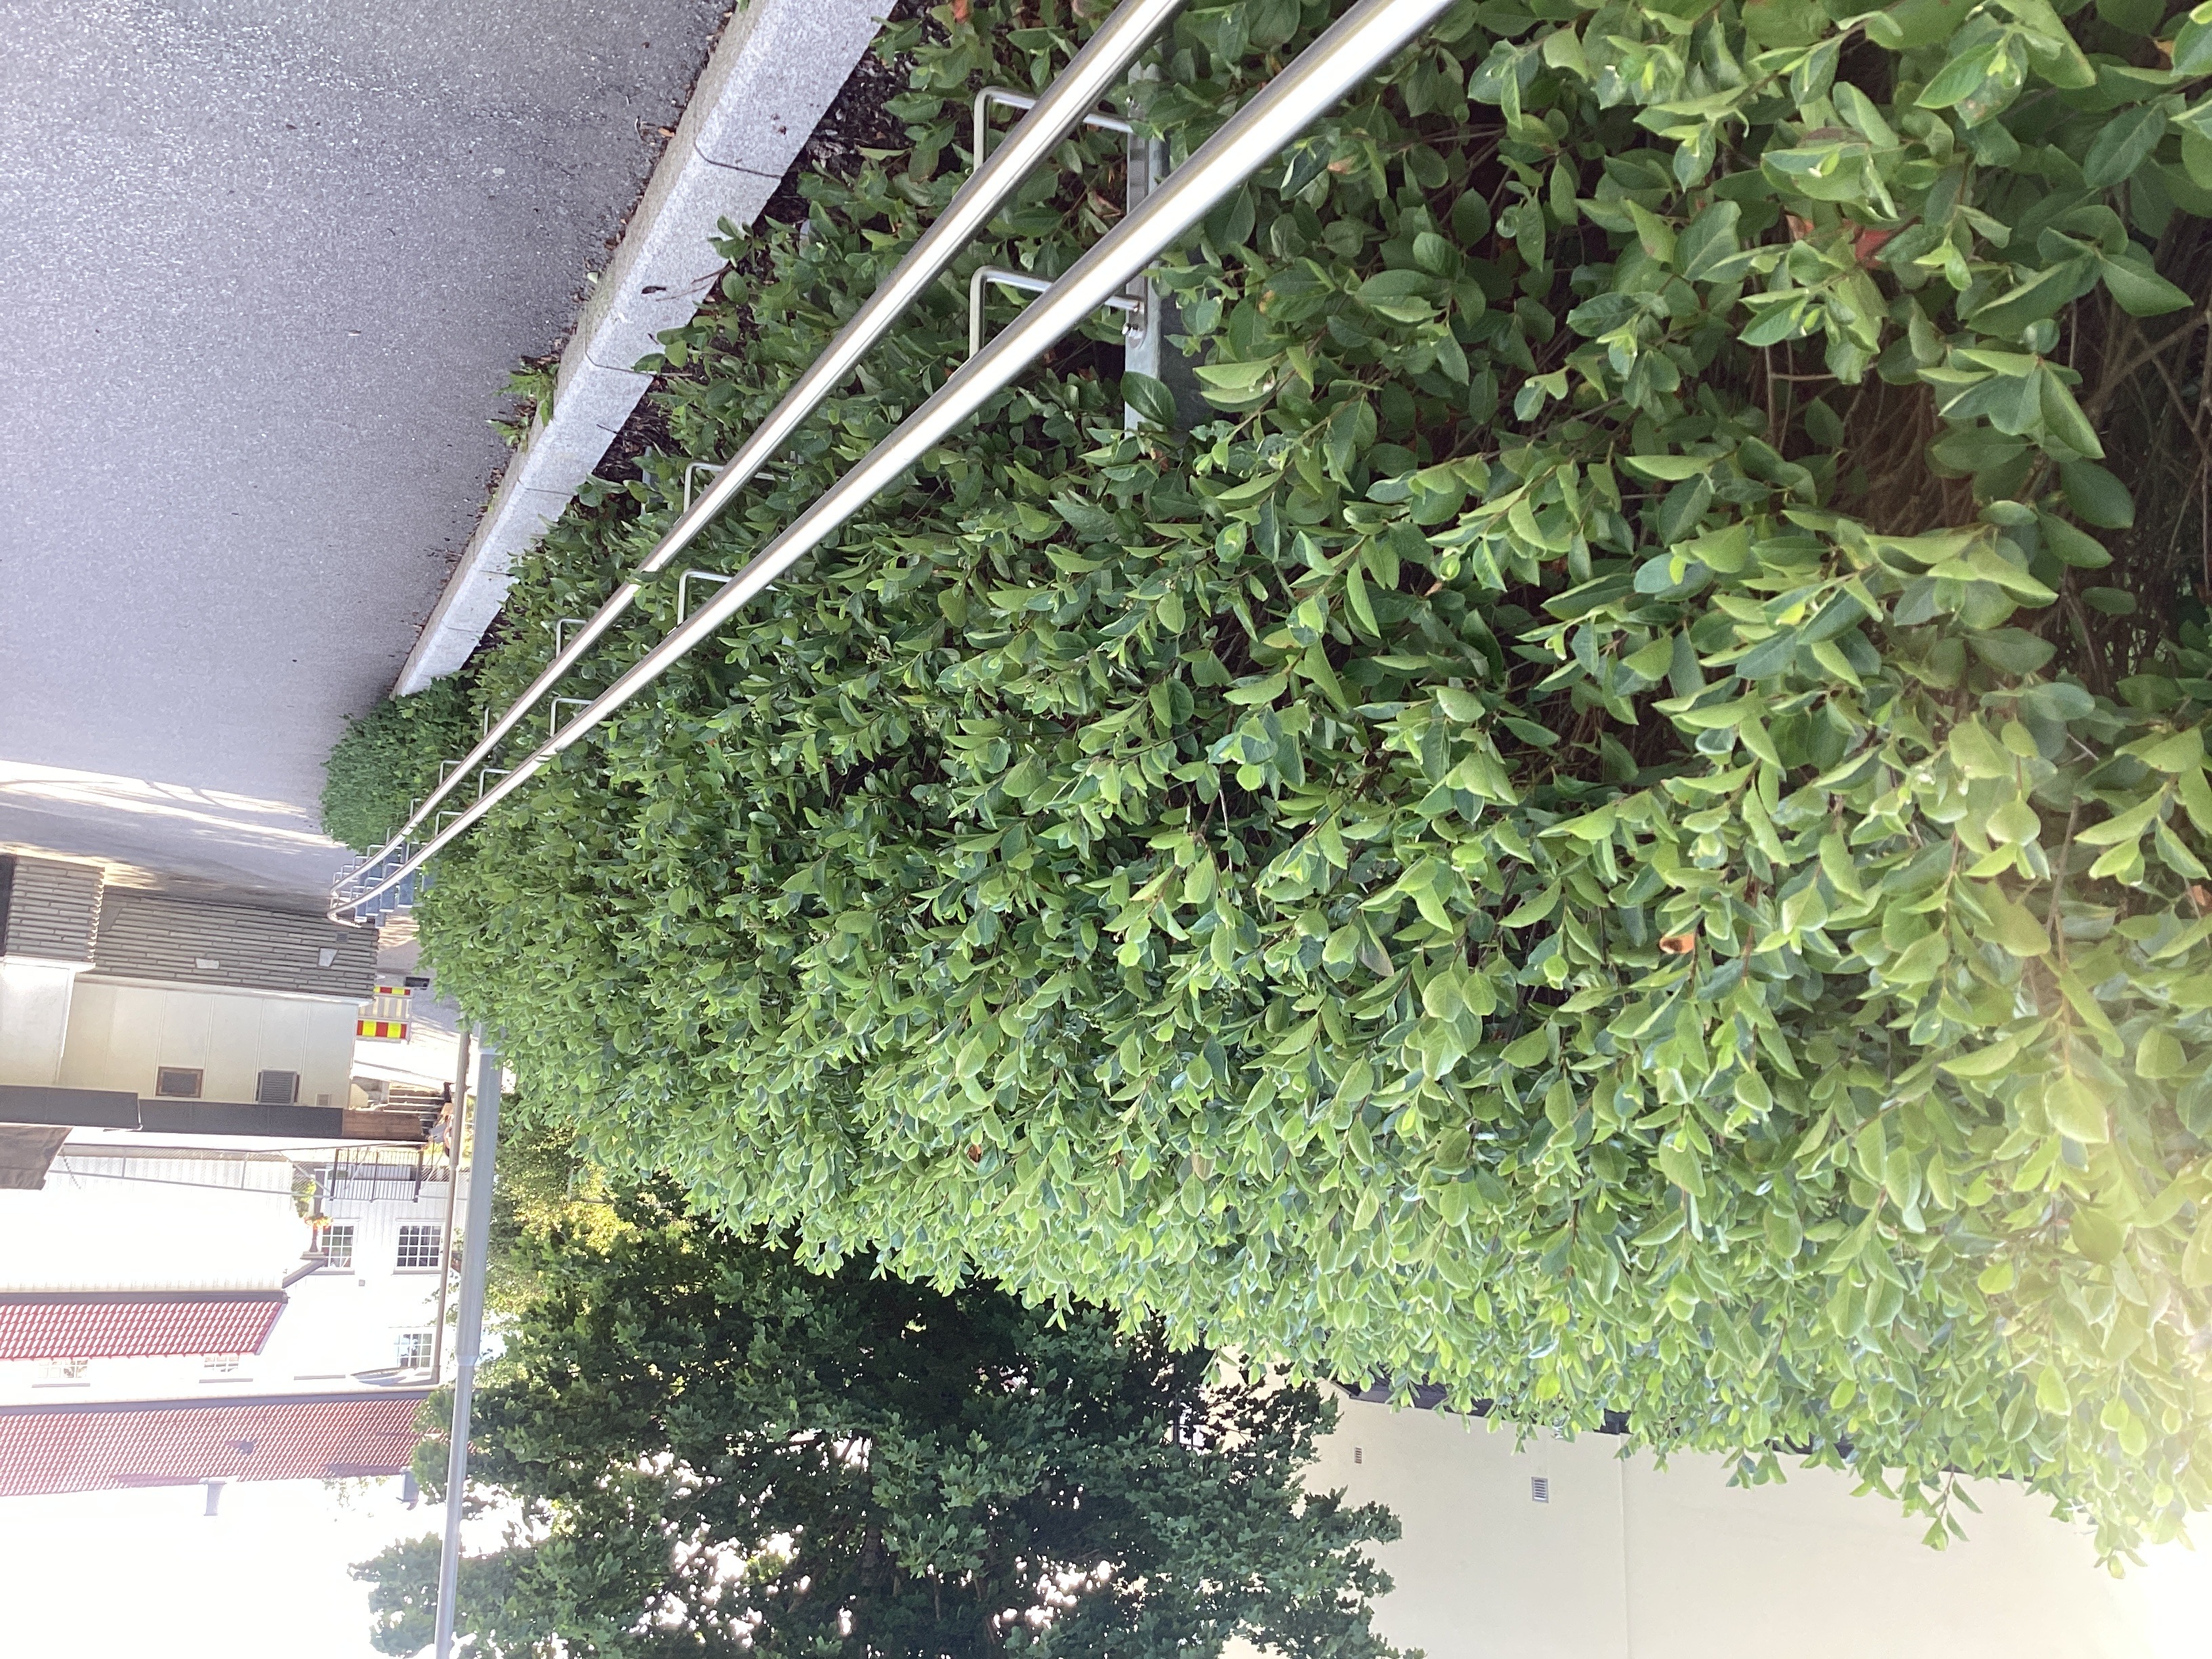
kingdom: Plantae
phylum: Tracheophyta
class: Magnoliopsida
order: Rosales
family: Rosaceae
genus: Aronia
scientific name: Aronia melanocarpa
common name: svartsurbær
